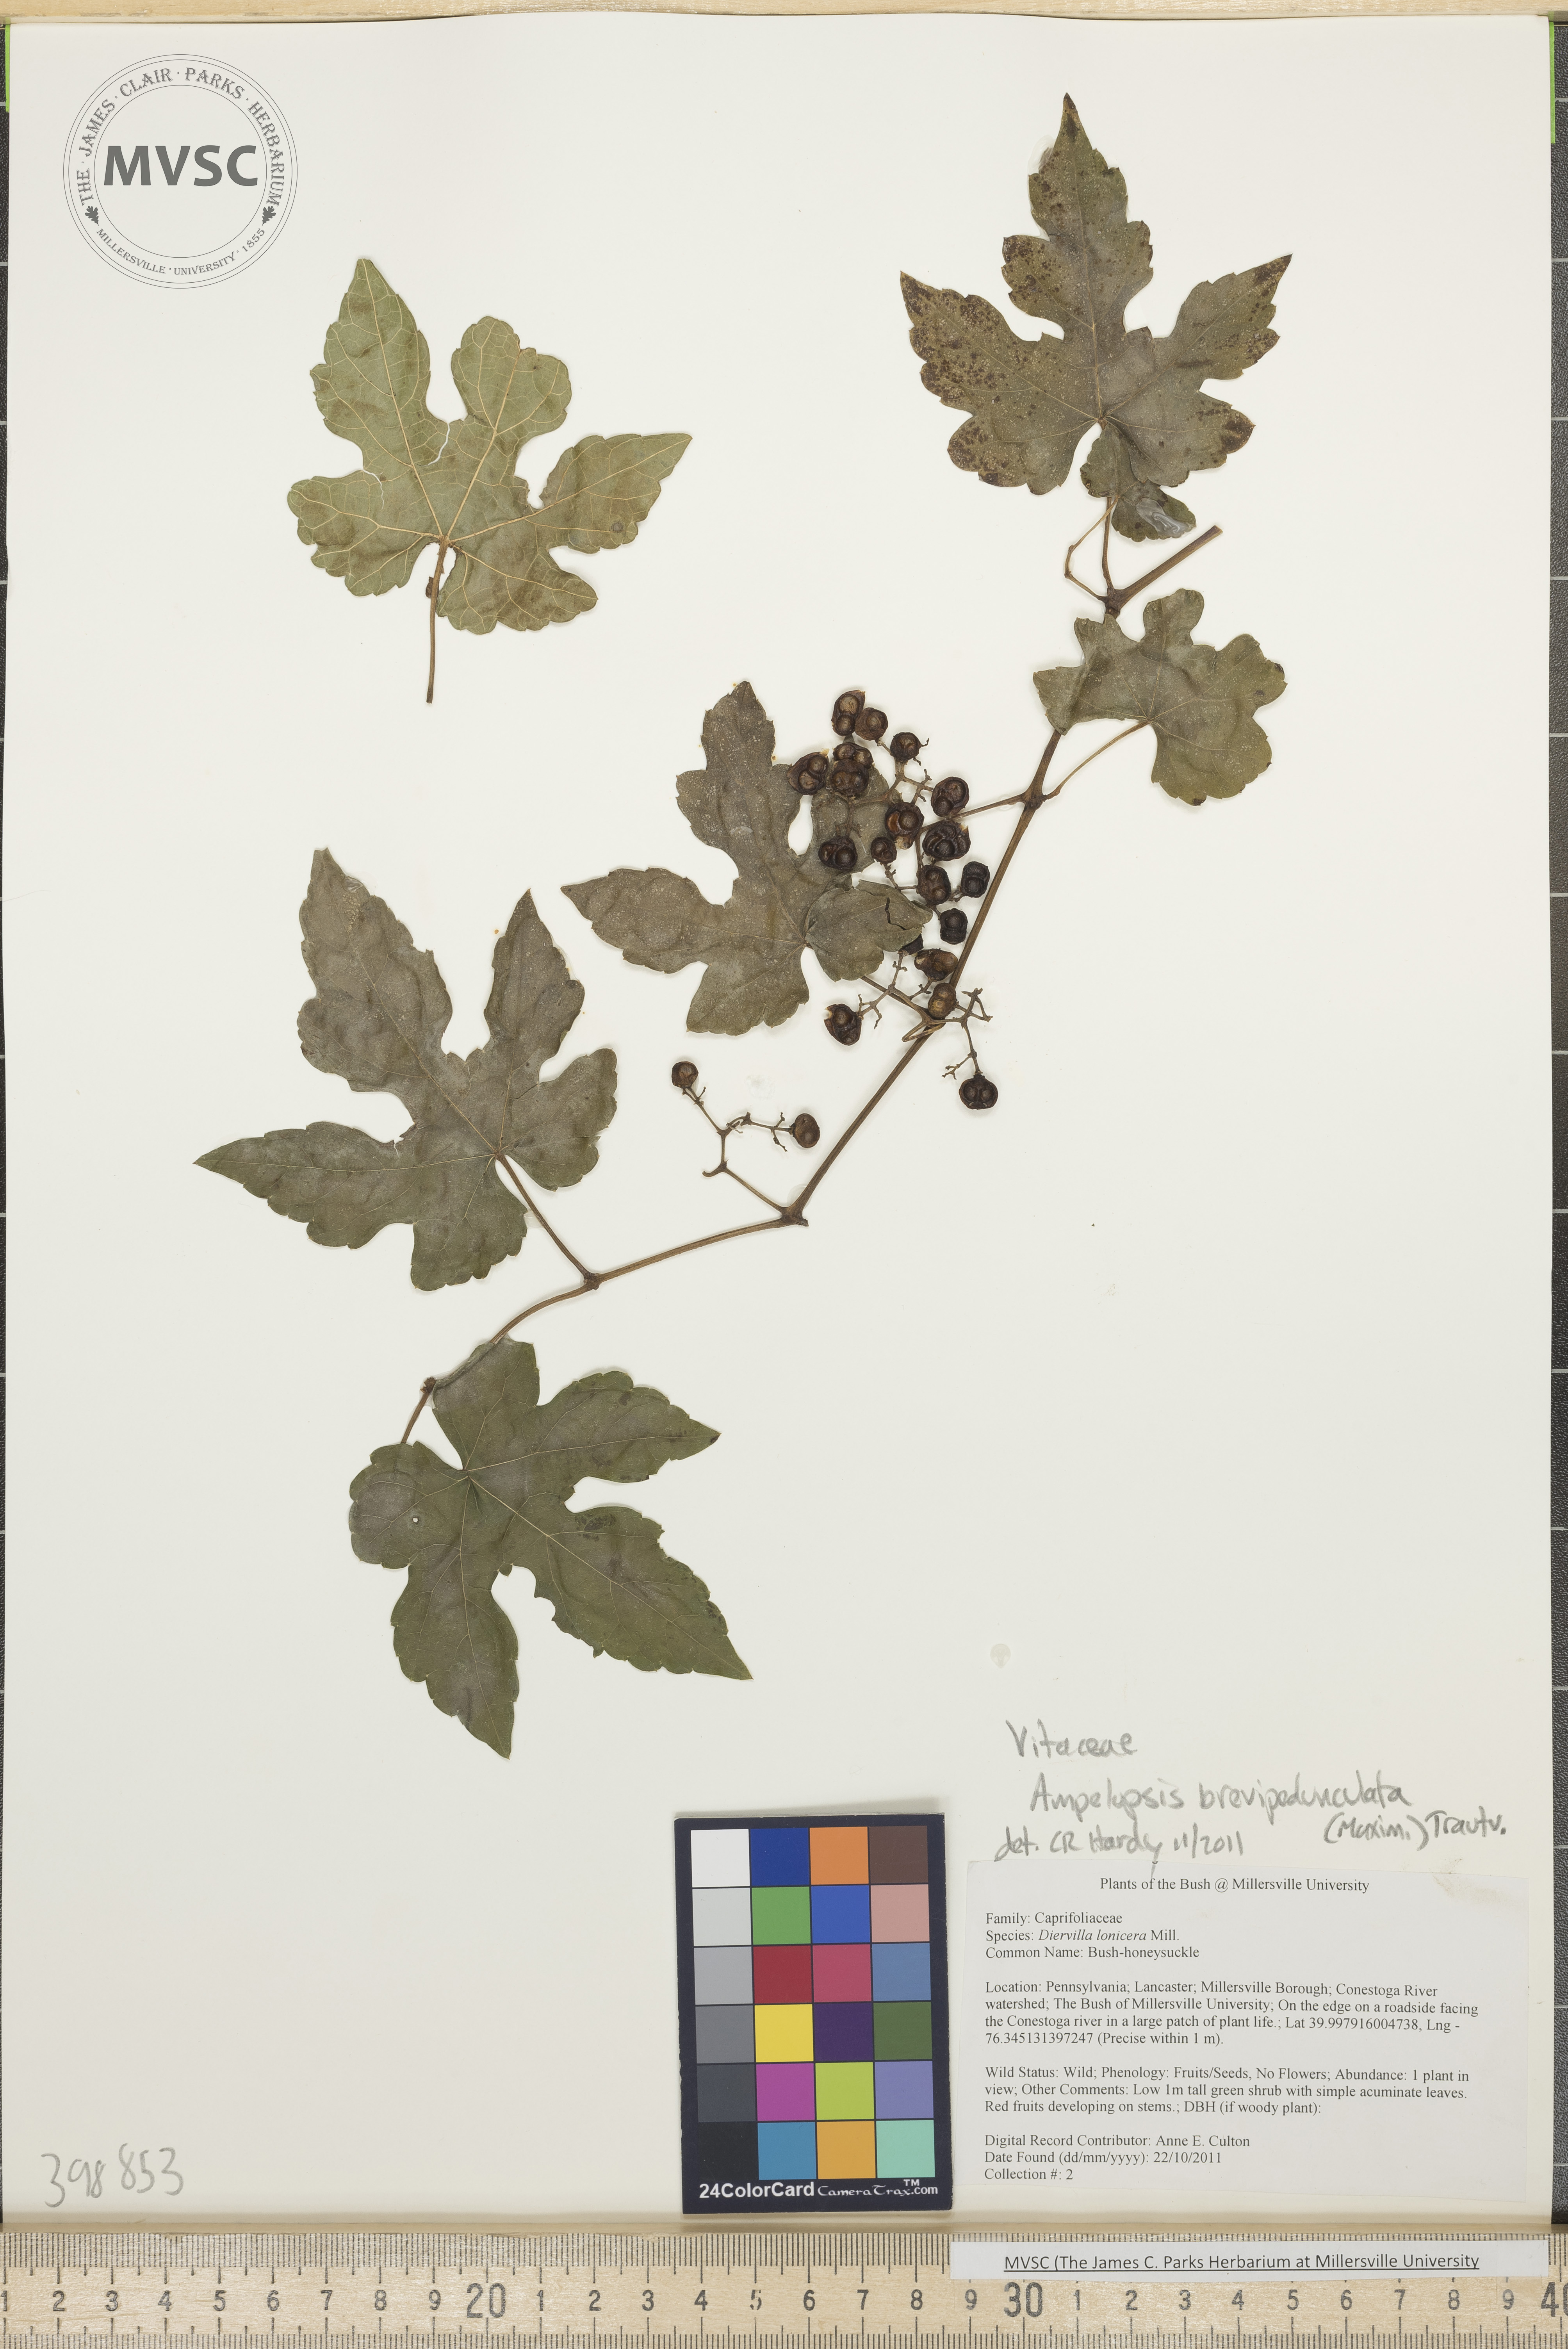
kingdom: Plantae
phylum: Tracheophyta
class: Magnoliopsida
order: Vitales
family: Vitaceae
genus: Ampelopsis
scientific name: Ampelopsis brevipedunculata
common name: Porcelain-berry
